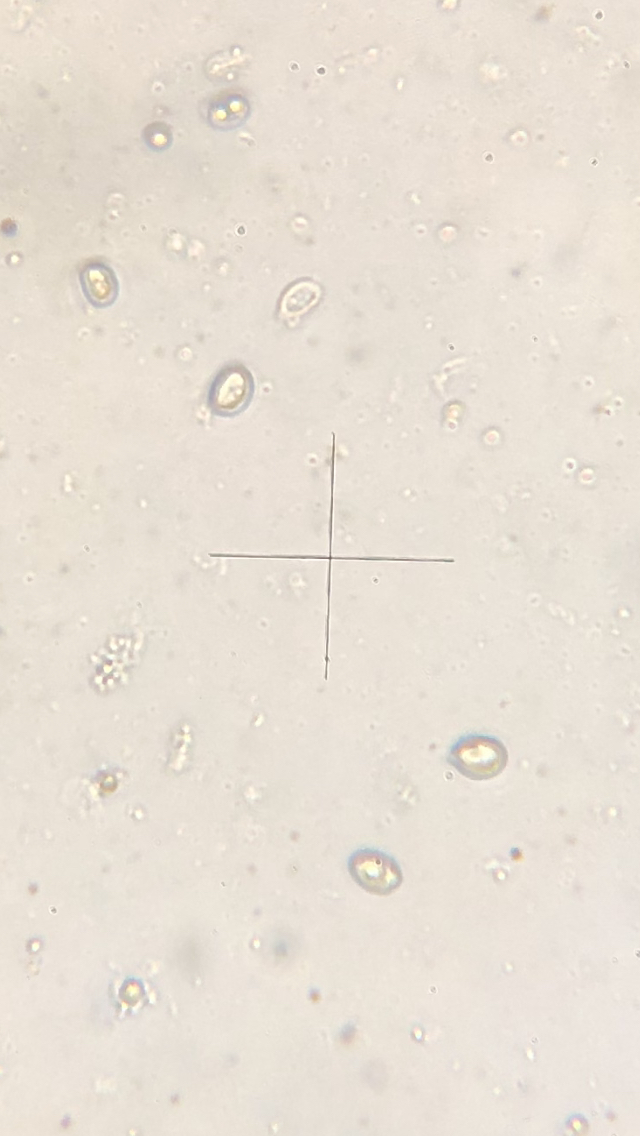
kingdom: Fungi
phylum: Basidiomycota
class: Agaricomycetes
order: Agaricales
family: Physalacriaceae
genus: Armillaria
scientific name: Armillaria borealis
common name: nordlig honningsvamp
